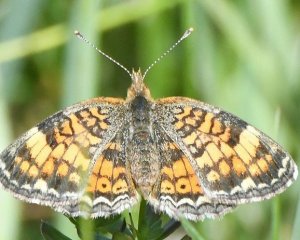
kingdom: Animalia
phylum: Arthropoda
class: Insecta
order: Lepidoptera
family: Nymphalidae
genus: Phyciodes
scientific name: Phyciodes
